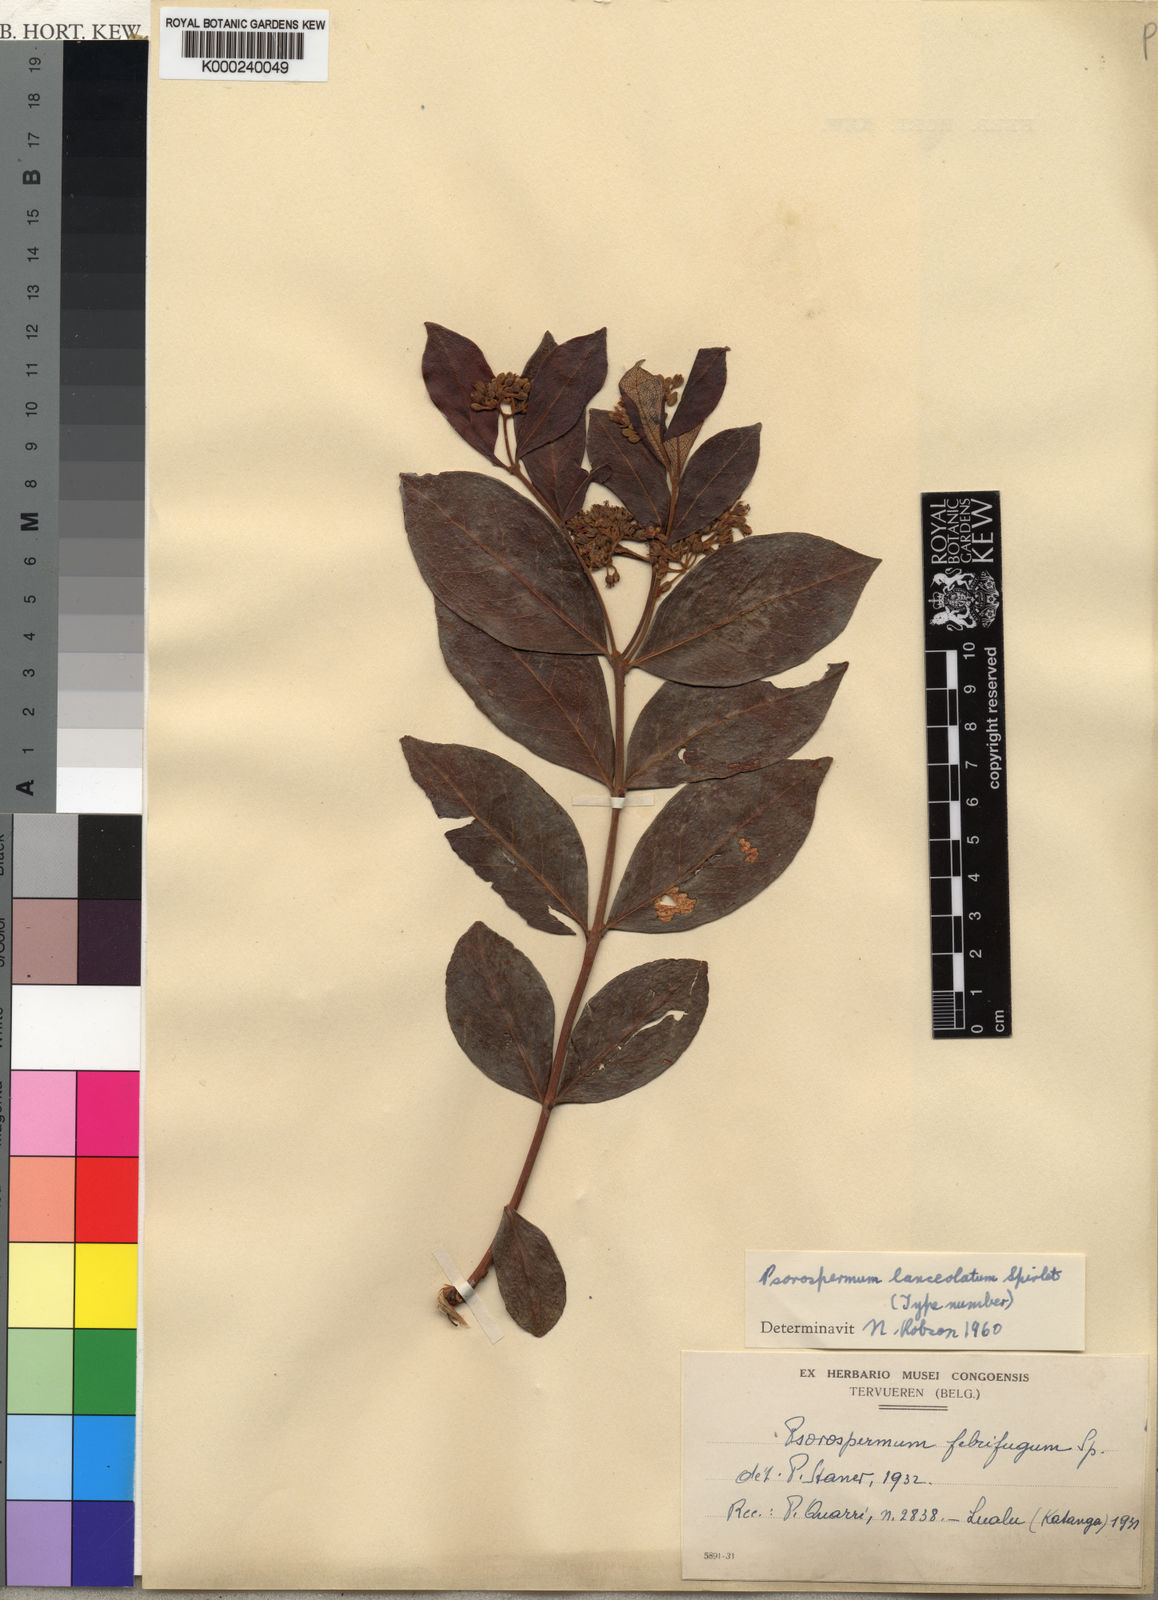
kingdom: Plantae
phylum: Tracheophyta
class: Magnoliopsida
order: Malpighiales
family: Hypericaceae
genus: Psorospermum
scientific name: Psorospermum febrifugum
